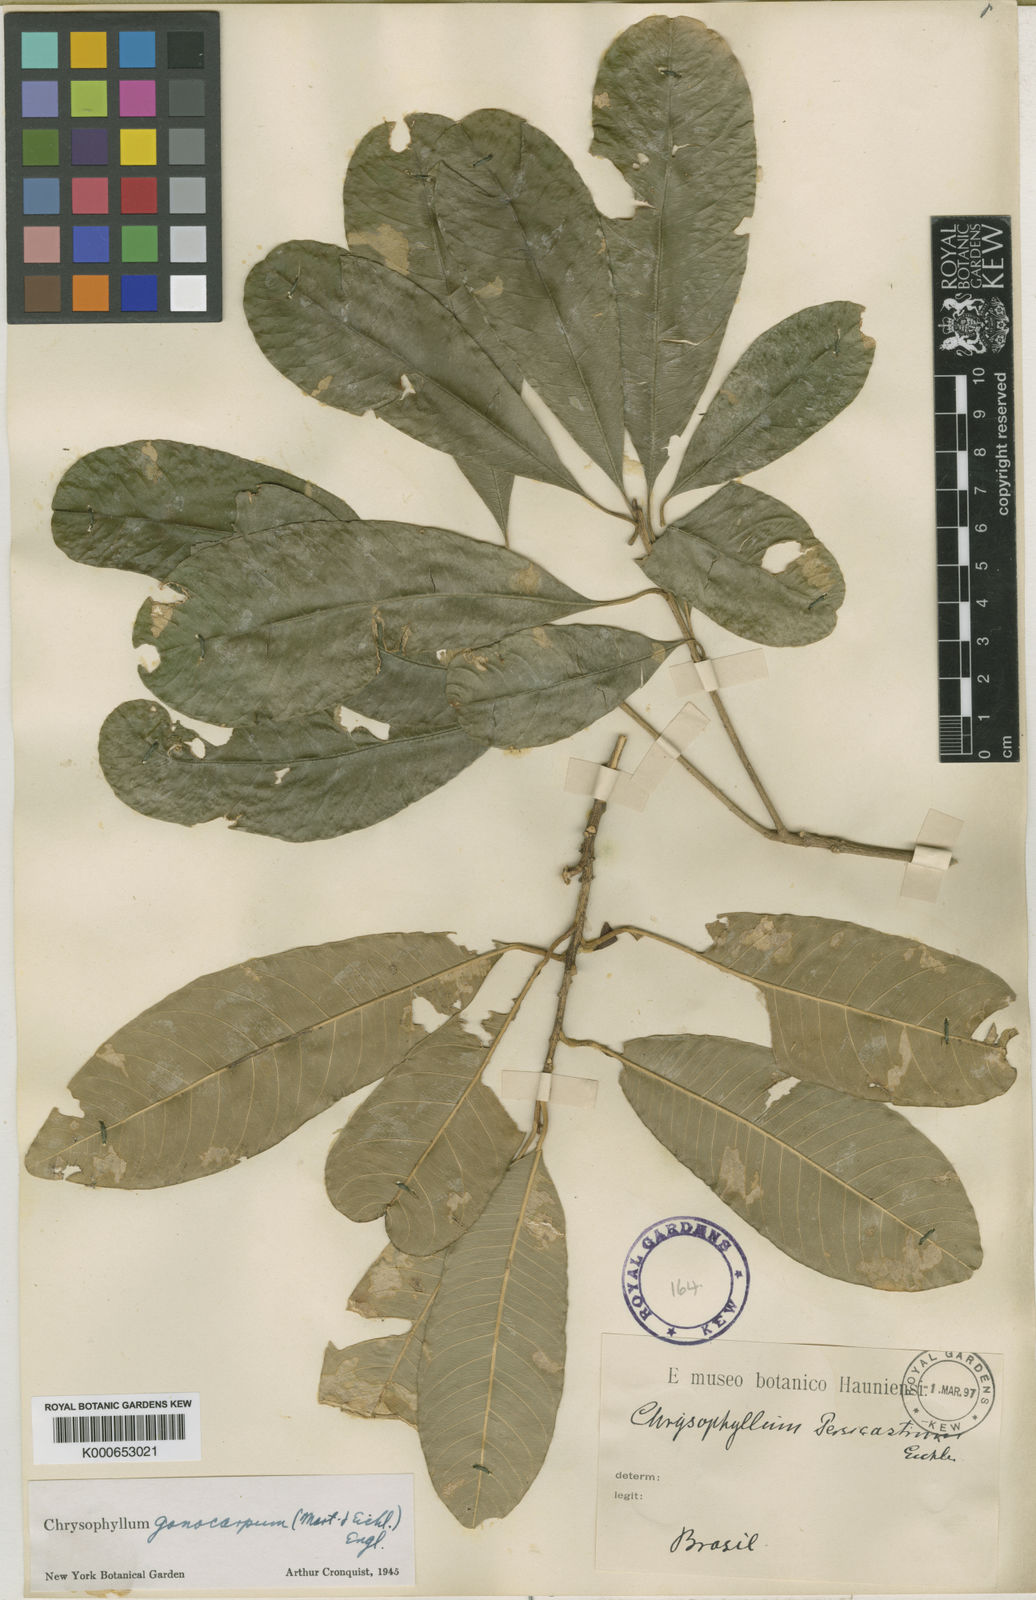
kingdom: Plantae
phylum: Tracheophyta
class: Magnoliopsida
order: Ericales
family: Sapotaceae
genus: Chrysophyllum
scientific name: Chrysophyllum gonocarpum
